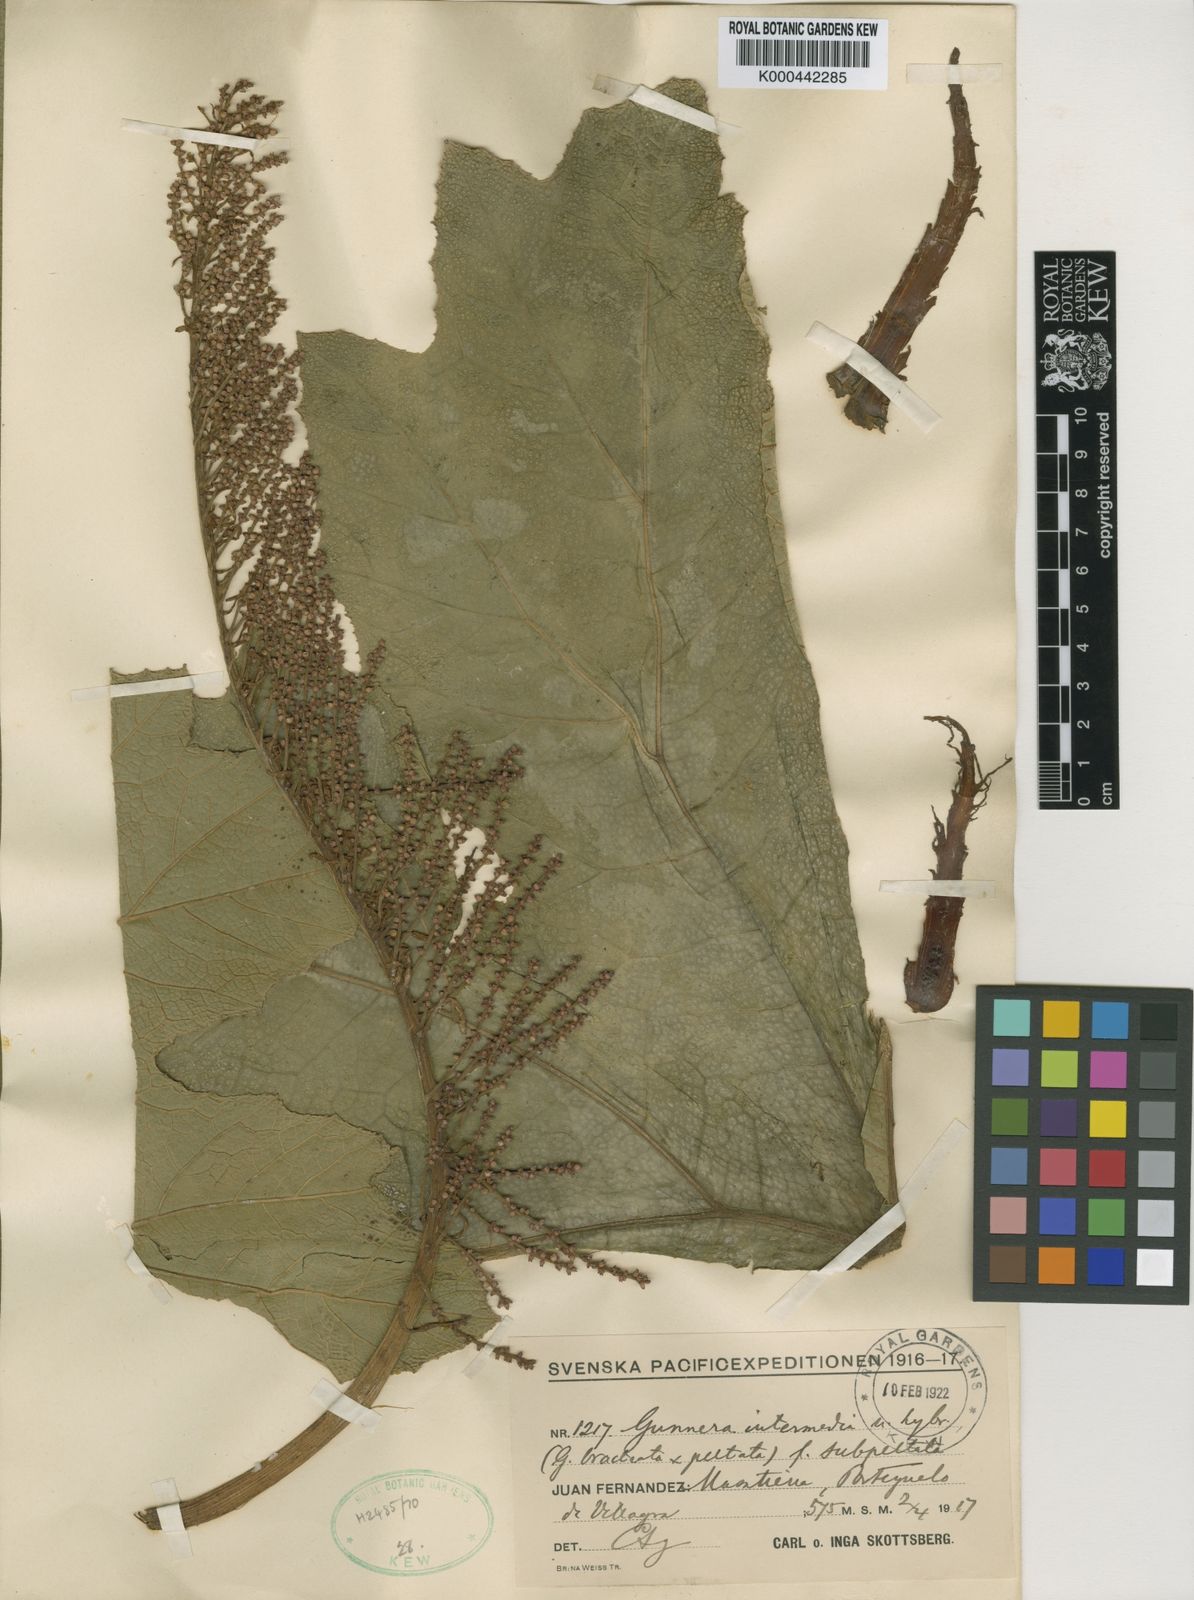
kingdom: Plantae
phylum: Tracheophyta
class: Magnoliopsida
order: Gunnerales
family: Gunneraceae
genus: Gunnera
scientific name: Gunnera
